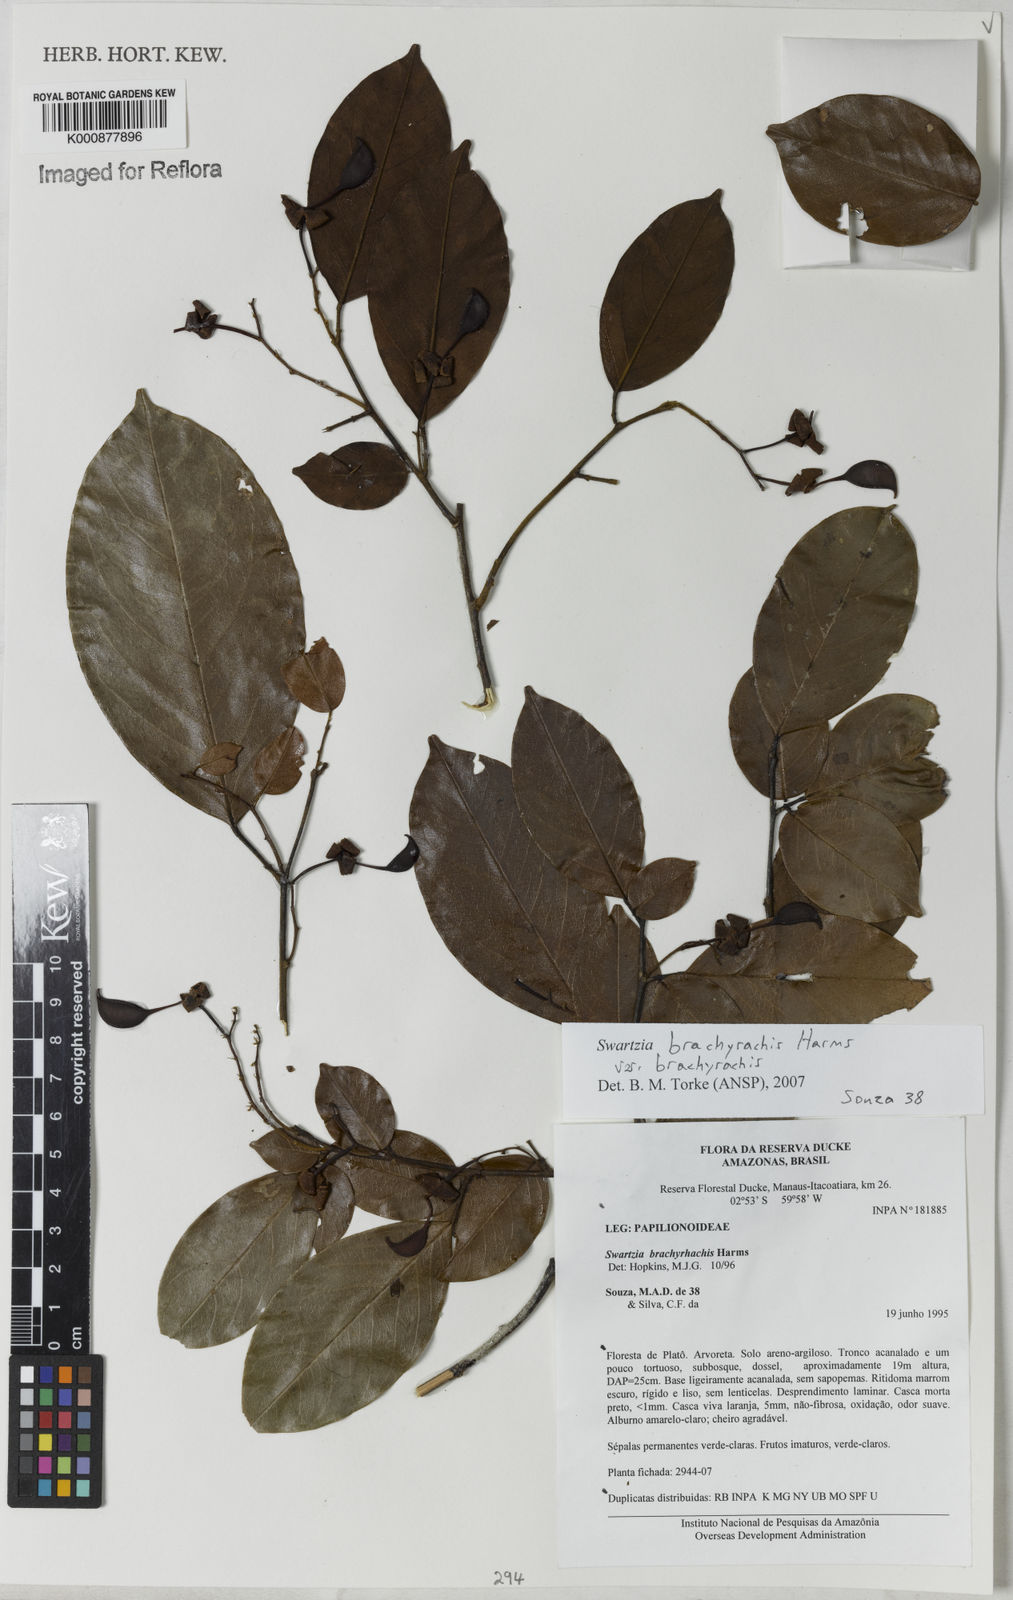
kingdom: Plantae
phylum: Tracheophyta
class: Magnoliopsida
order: Fabales
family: Fabaceae
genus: Swartzia
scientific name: Swartzia
